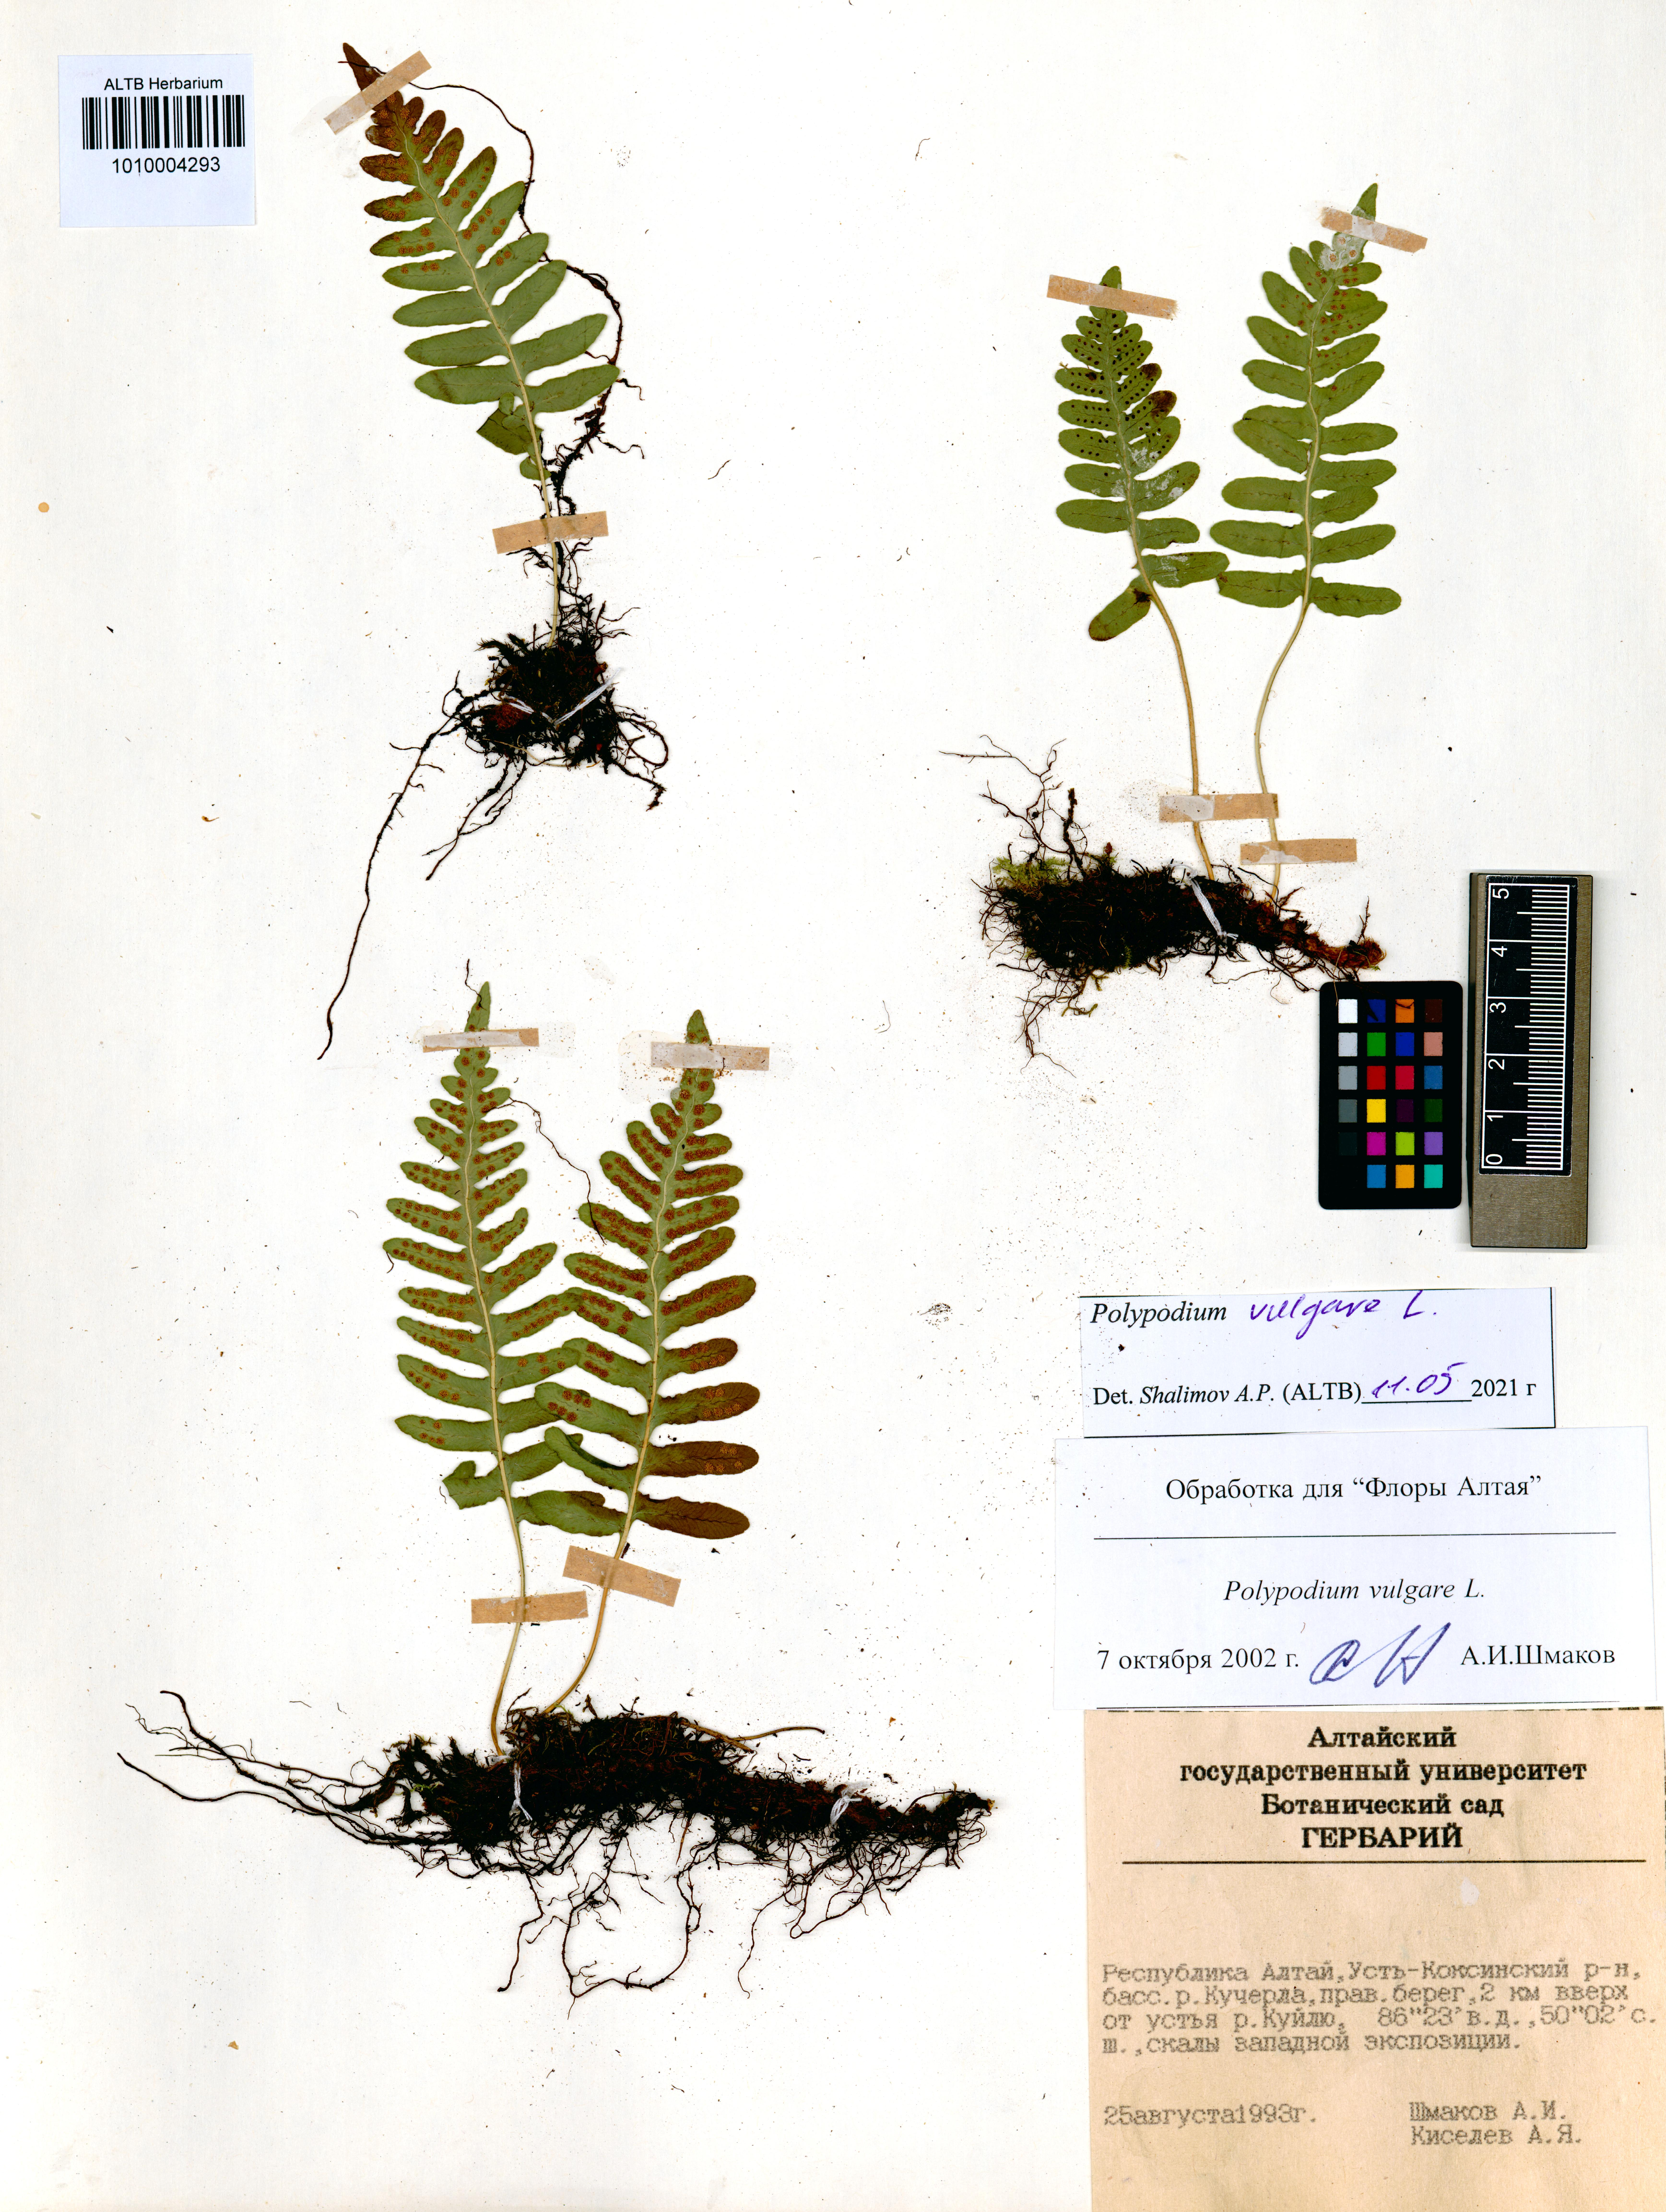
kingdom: Plantae
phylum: Tracheophyta
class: Polypodiopsida
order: Polypodiales
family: Polypodiaceae
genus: Polypodium
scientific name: Polypodium vulgare
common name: Common polypody
